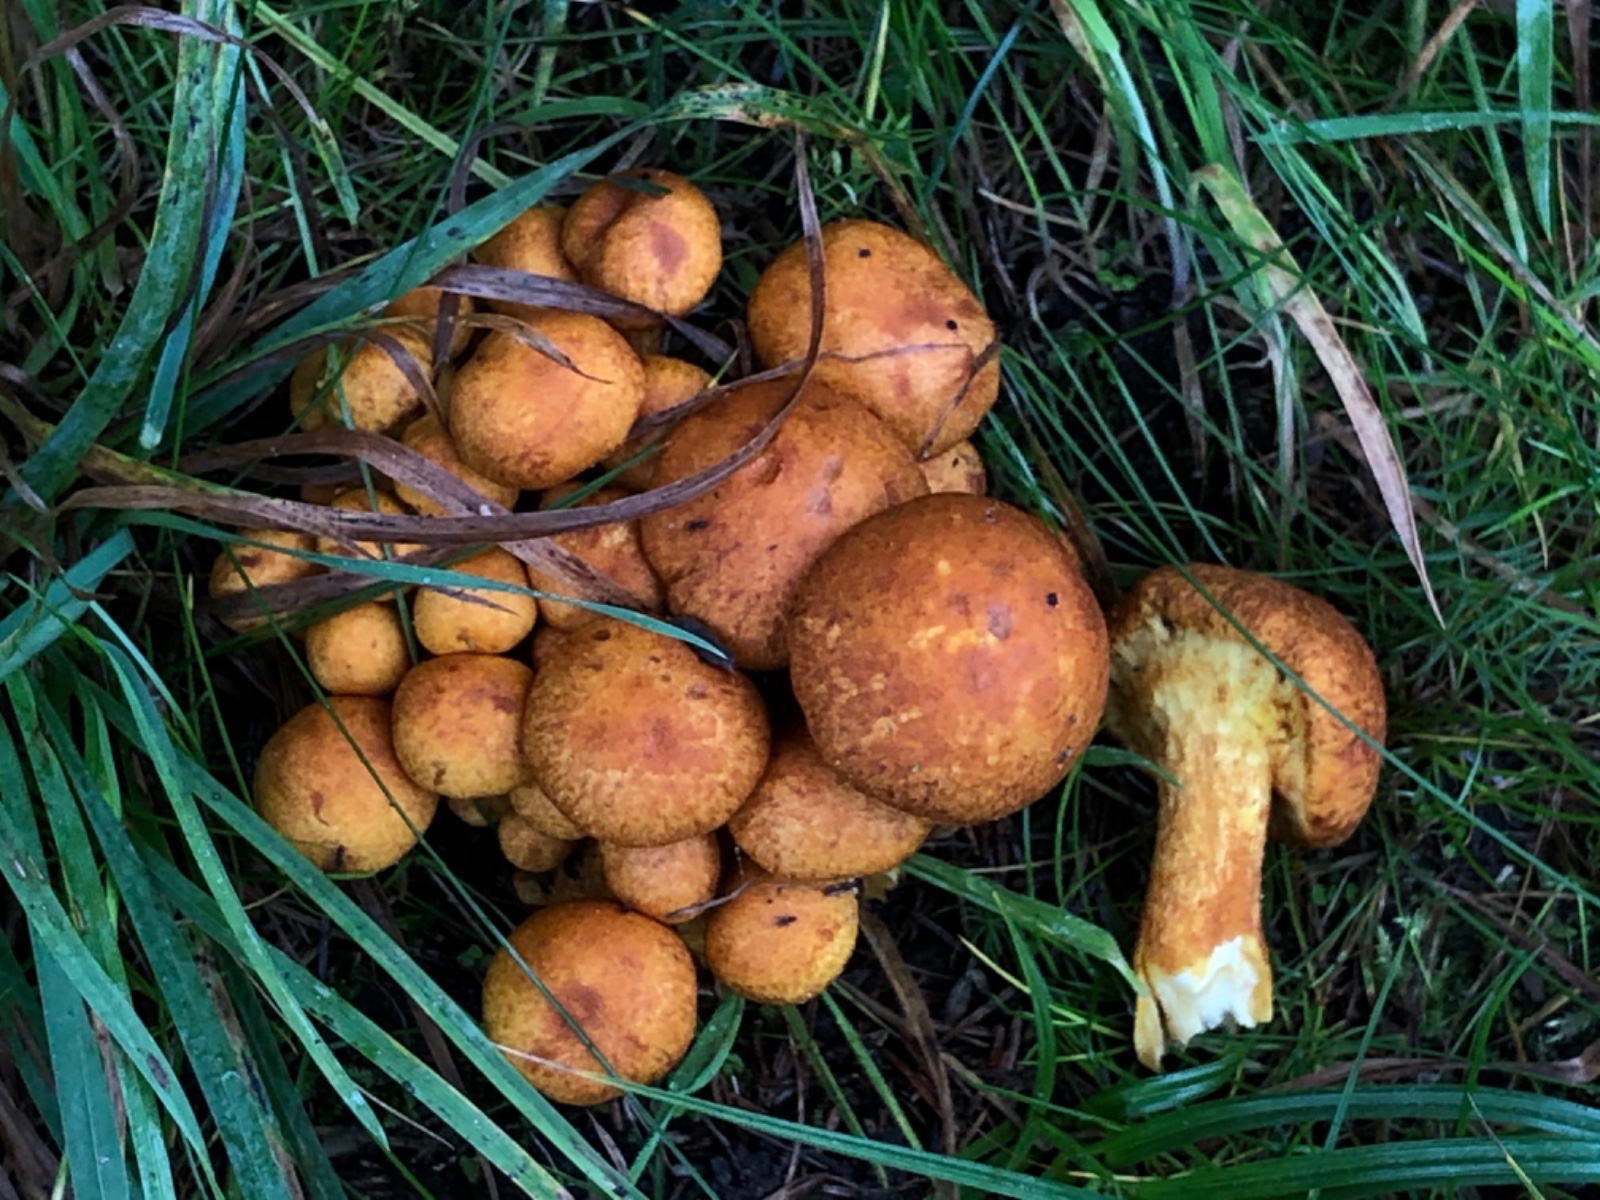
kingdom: Fungi
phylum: Basidiomycota
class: Agaricomycetes
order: Agaricales
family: Hymenogastraceae
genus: Gymnopilus
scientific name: Gymnopilus spectabilis
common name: fibret flammehat
